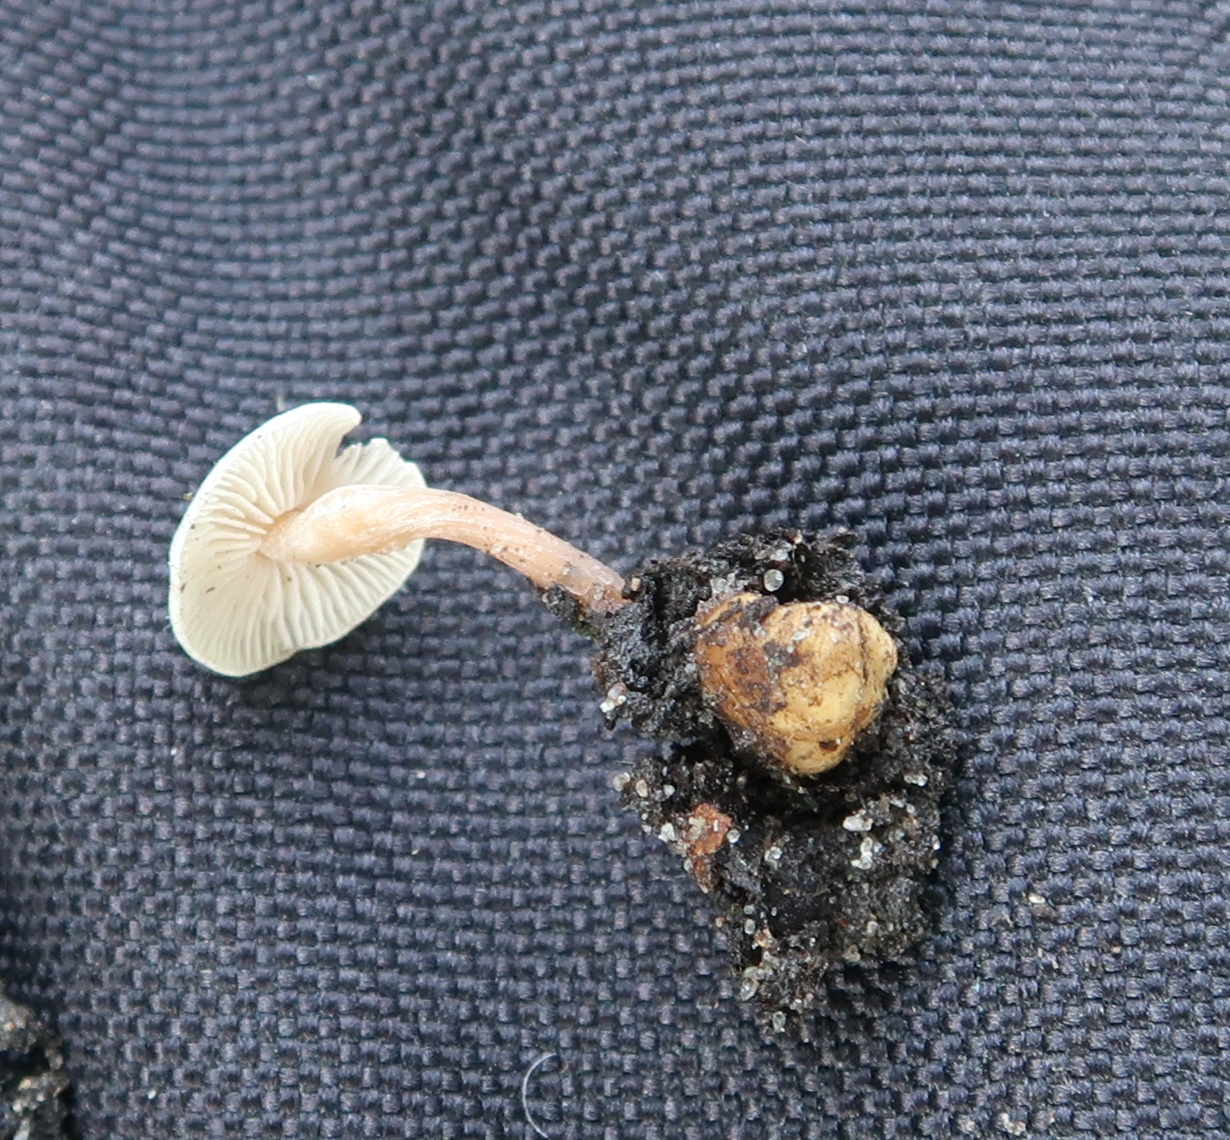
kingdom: Fungi
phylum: Basidiomycota
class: Agaricomycetes
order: Agaricales
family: Tricholomataceae
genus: Collybia
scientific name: Collybia cookei
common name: gulknoldet lighat
